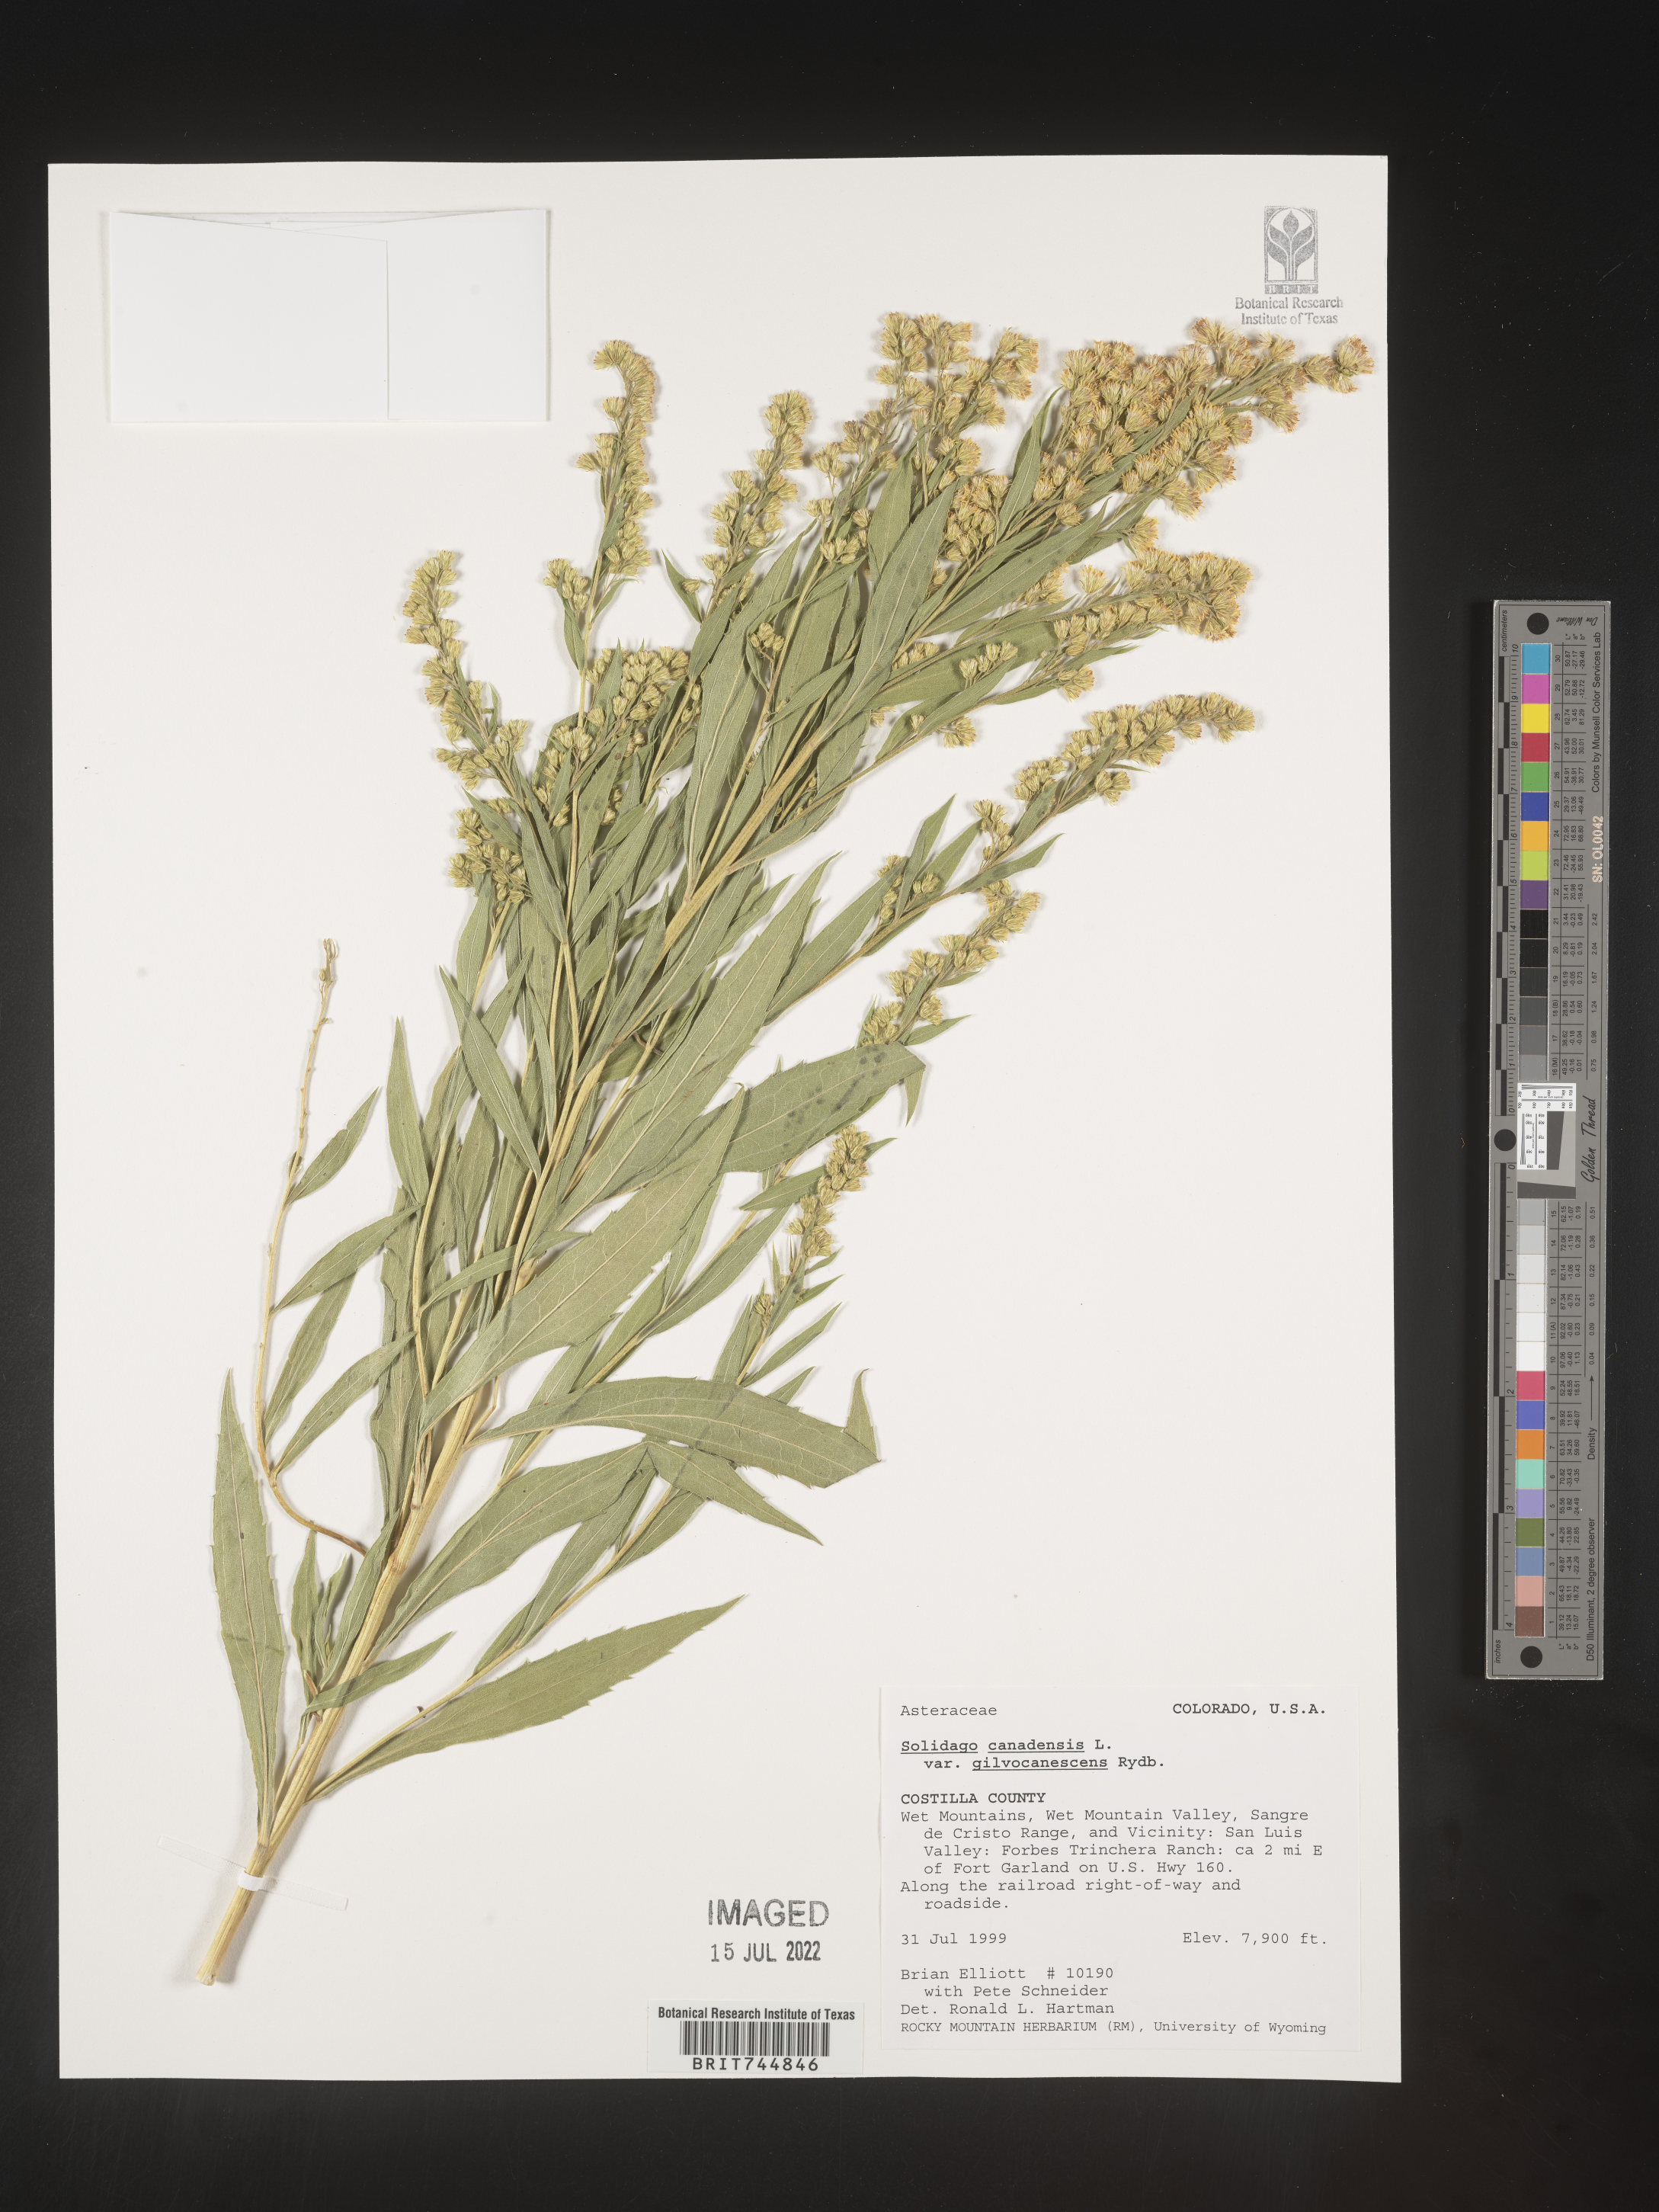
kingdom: Plantae
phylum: Tracheophyta
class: Magnoliopsida
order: Asterales
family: Asteraceae
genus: Solidago
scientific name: Solidago canadensis
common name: Canada goldenrod
